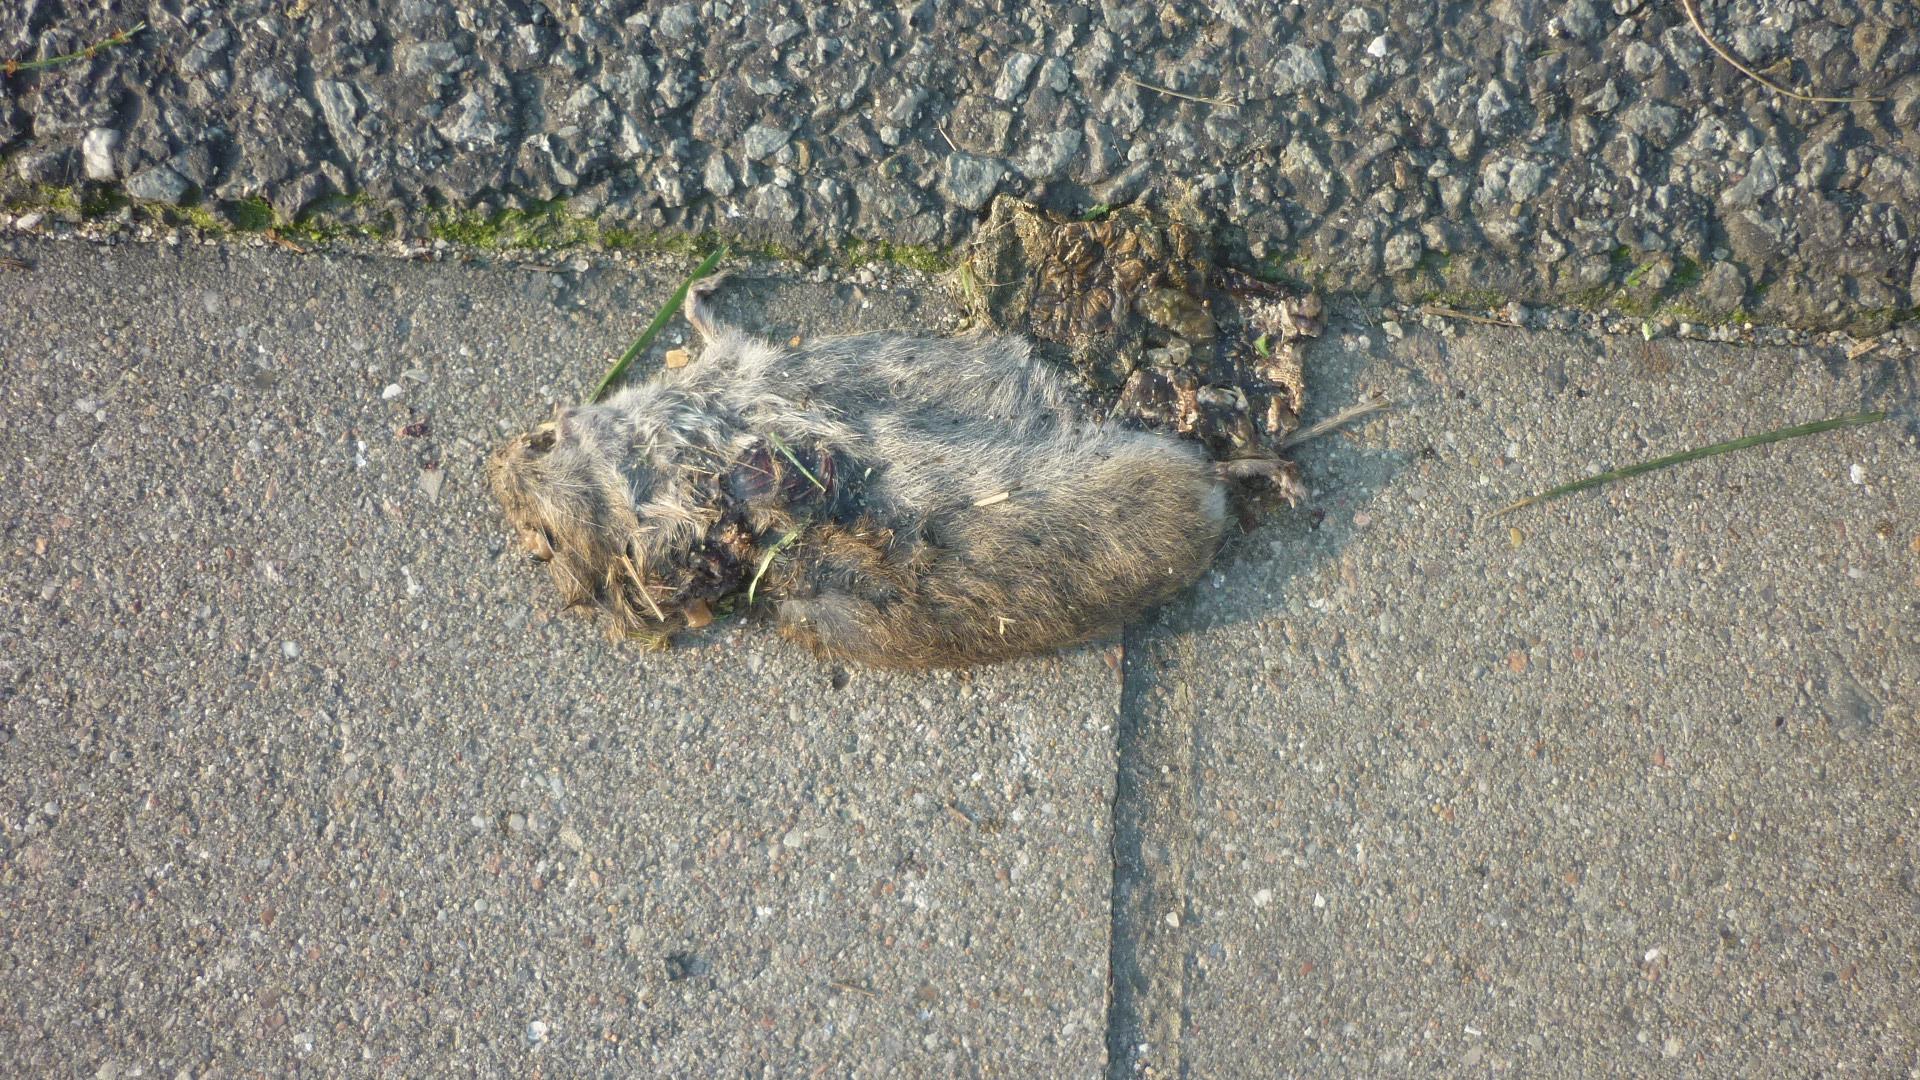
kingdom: Animalia
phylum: Chordata
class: Mammalia
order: Rodentia
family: Cricetidae
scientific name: Cricetidae
